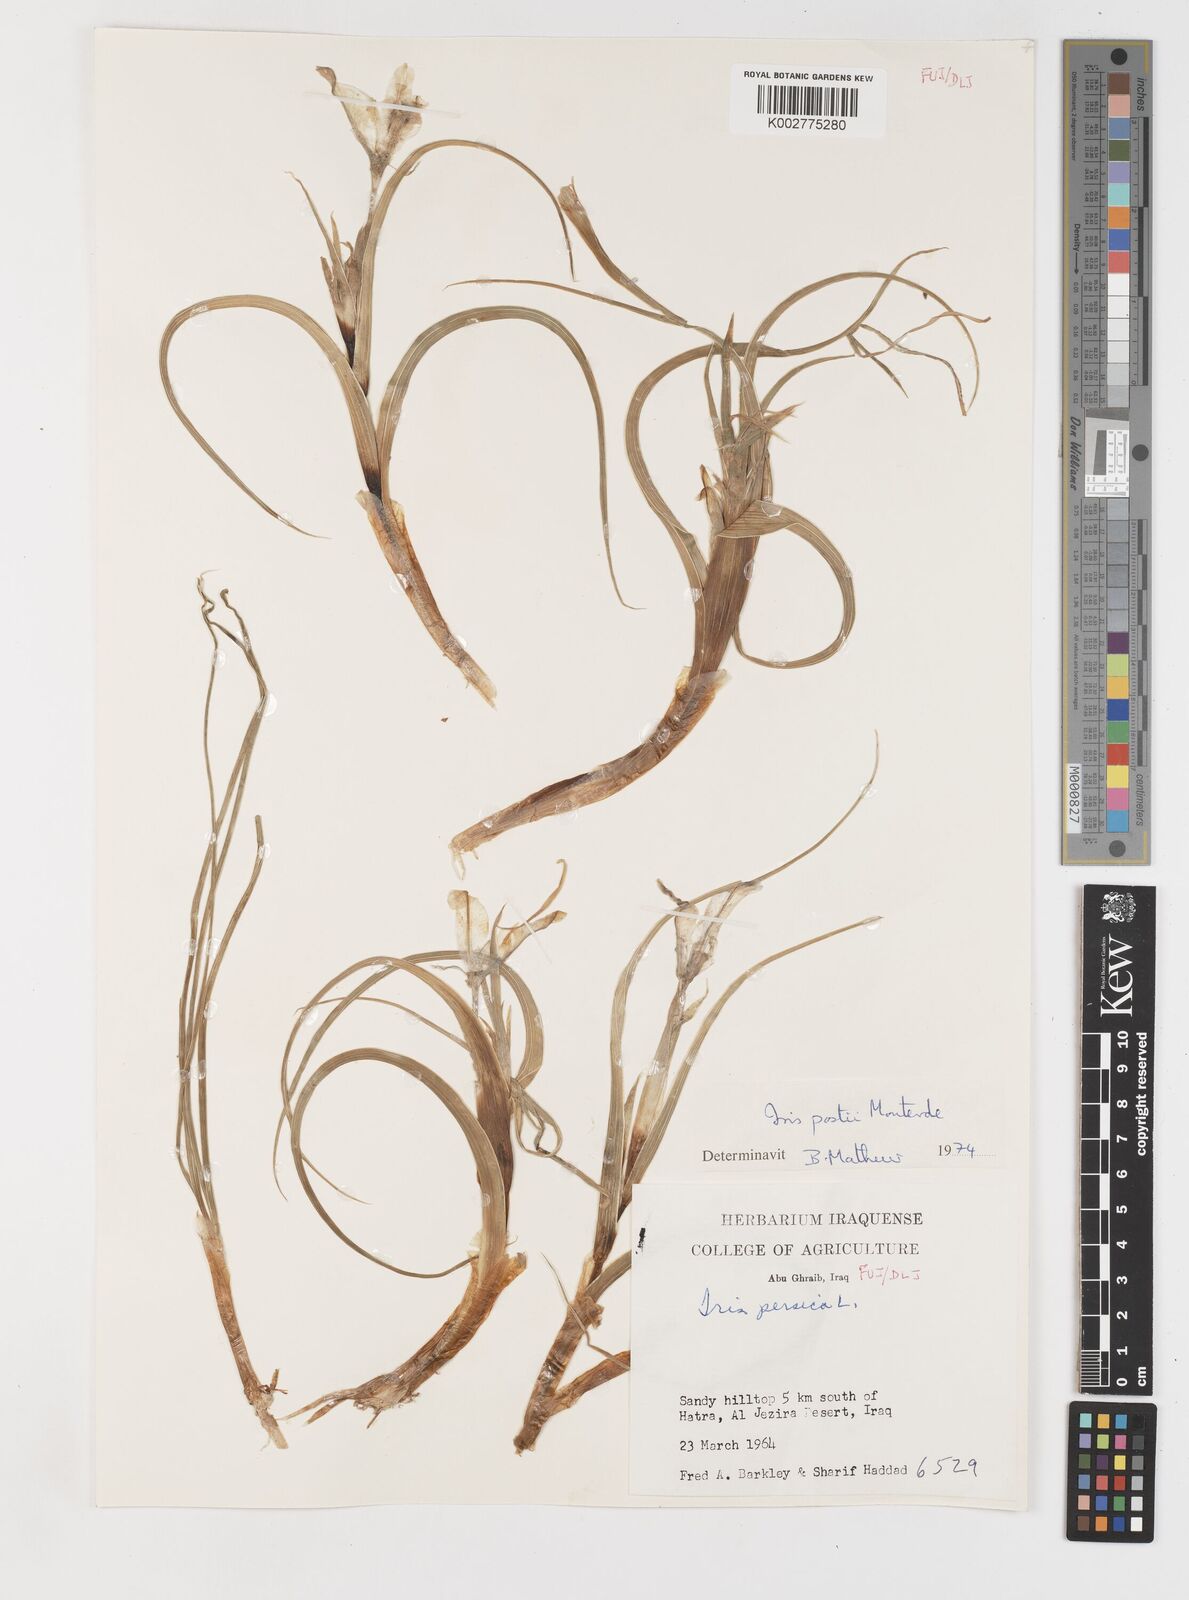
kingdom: Plantae
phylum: Tracheophyta
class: Liliopsida
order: Asparagales
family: Iridaceae
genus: Iris
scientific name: Iris postii
